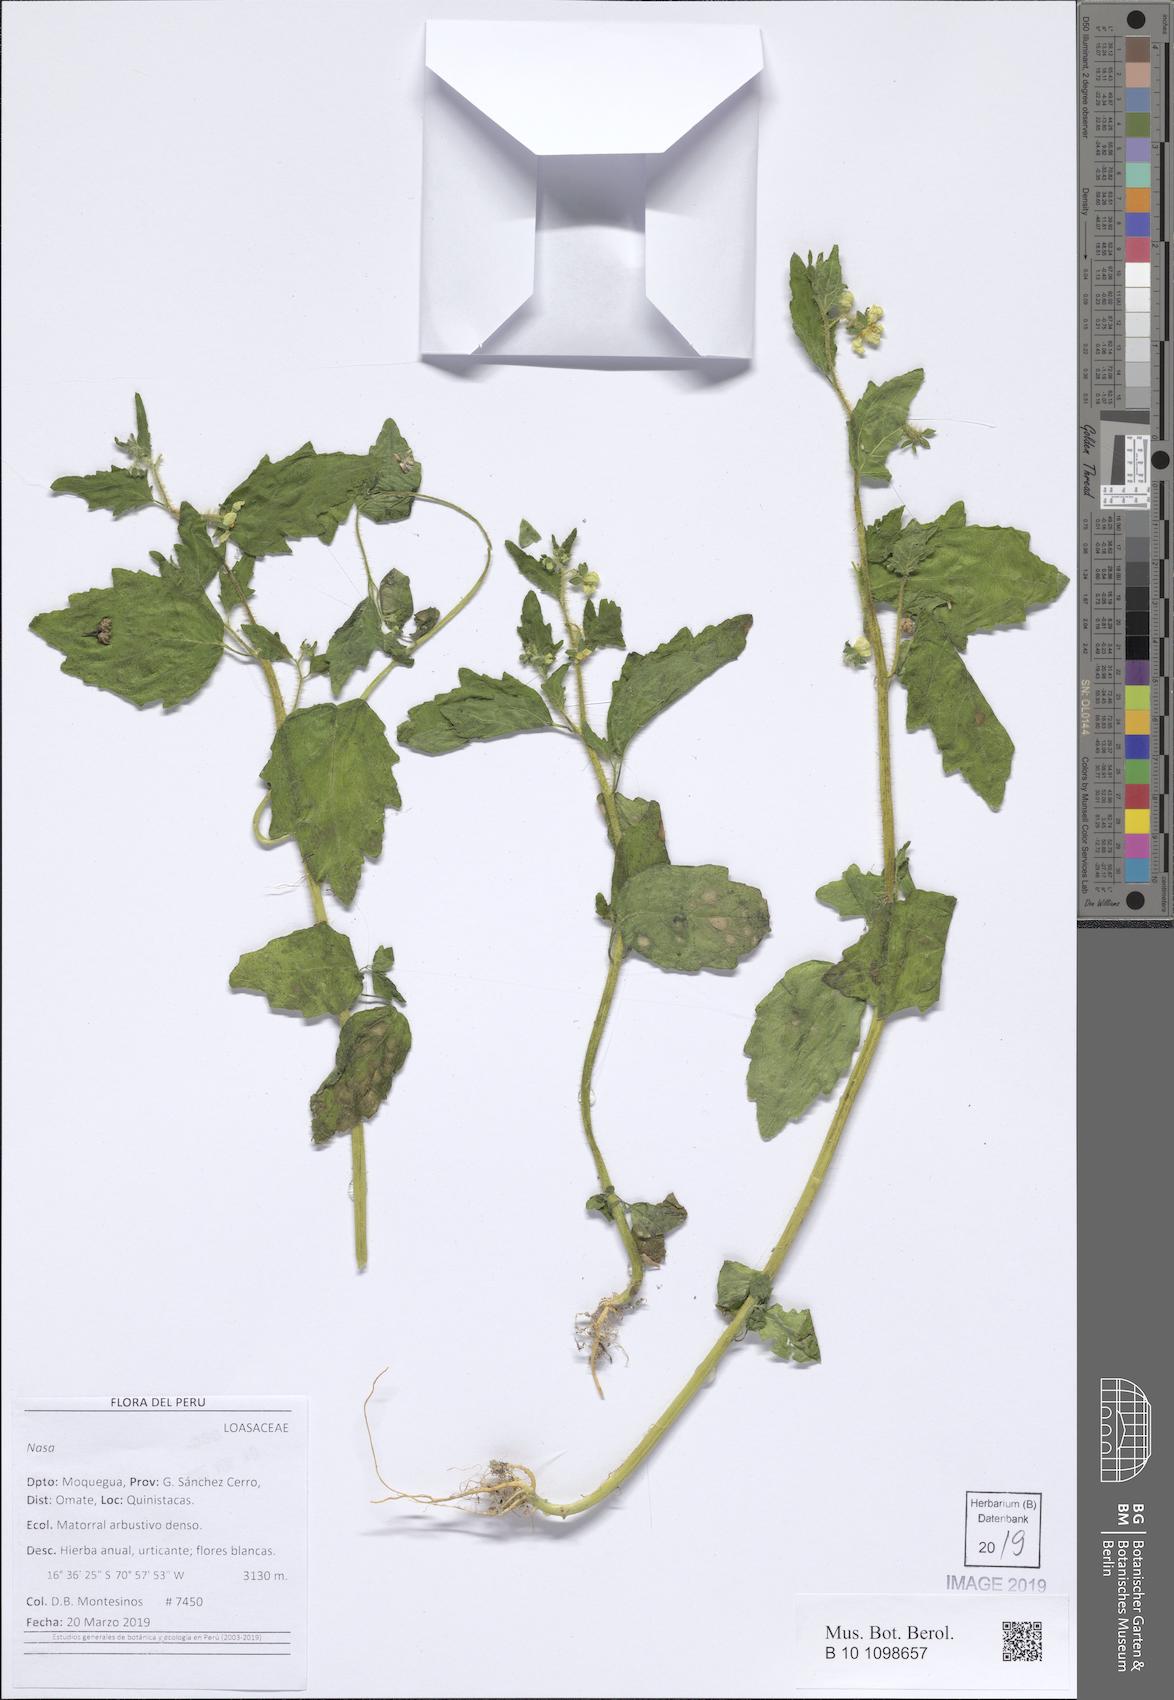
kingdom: Plantae
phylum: Tracheophyta
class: Magnoliopsida
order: Cornales
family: Loasaceae
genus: Nasa
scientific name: Nasa
